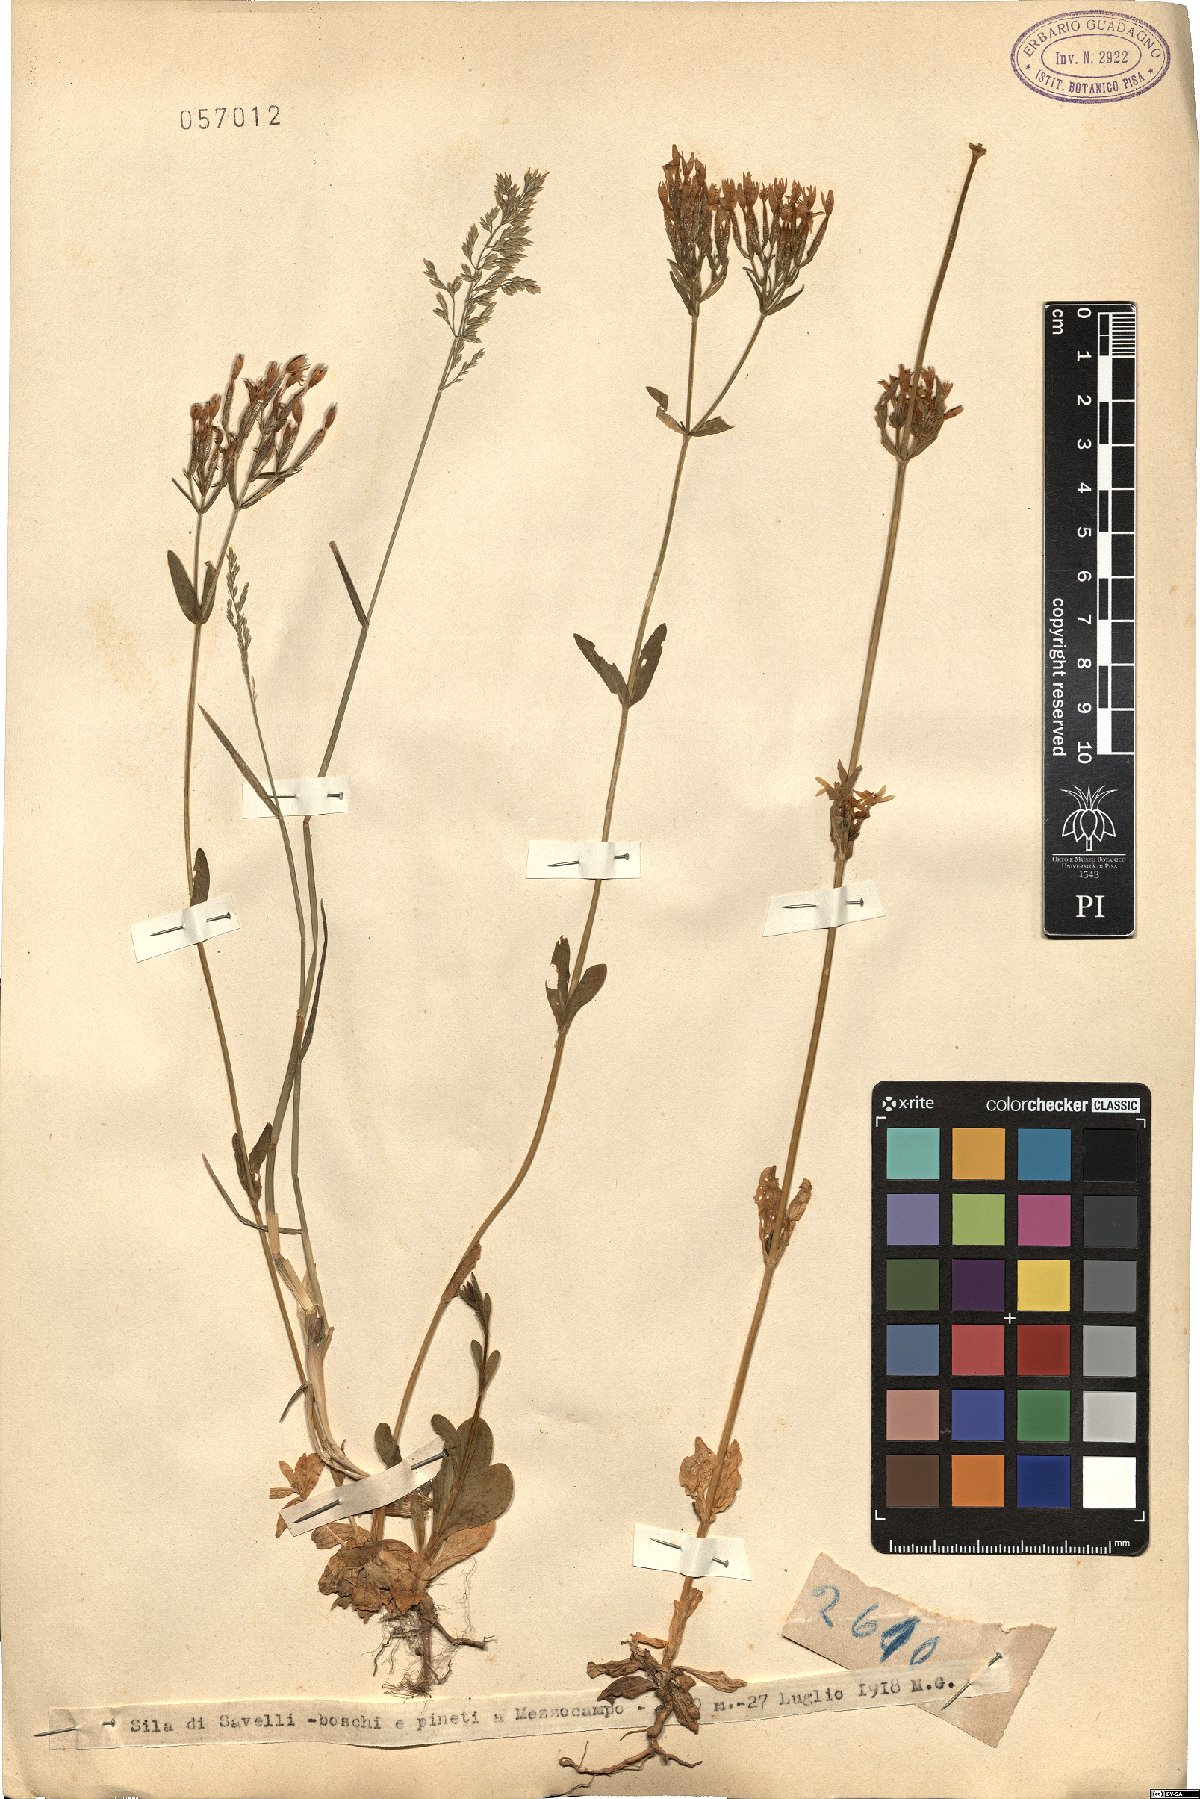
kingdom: Plantae
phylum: Tracheophyta
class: Magnoliopsida
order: Gentianales
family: Gentianaceae
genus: Erythraea
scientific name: Erythraea
